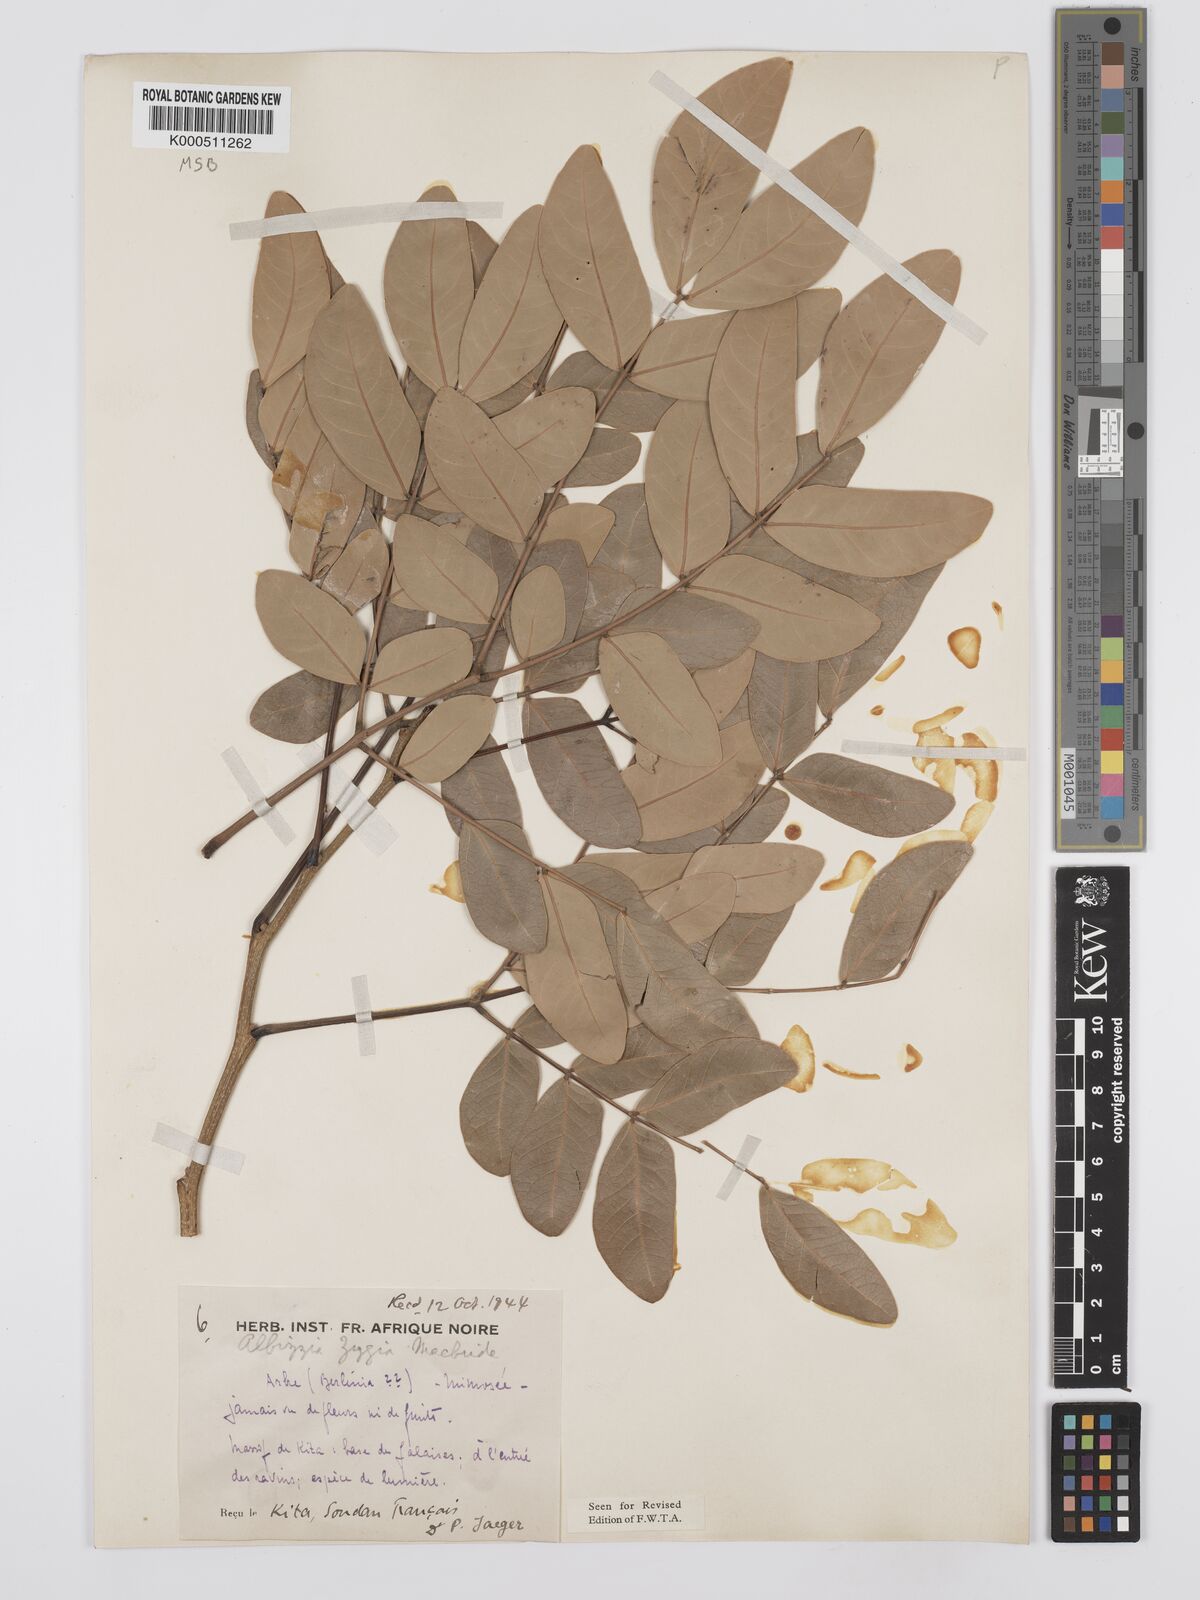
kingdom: Plantae
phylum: Tracheophyta
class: Magnoliopsida
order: Fabales
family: Fabaceae
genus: Albizia
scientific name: Albizia zygia
